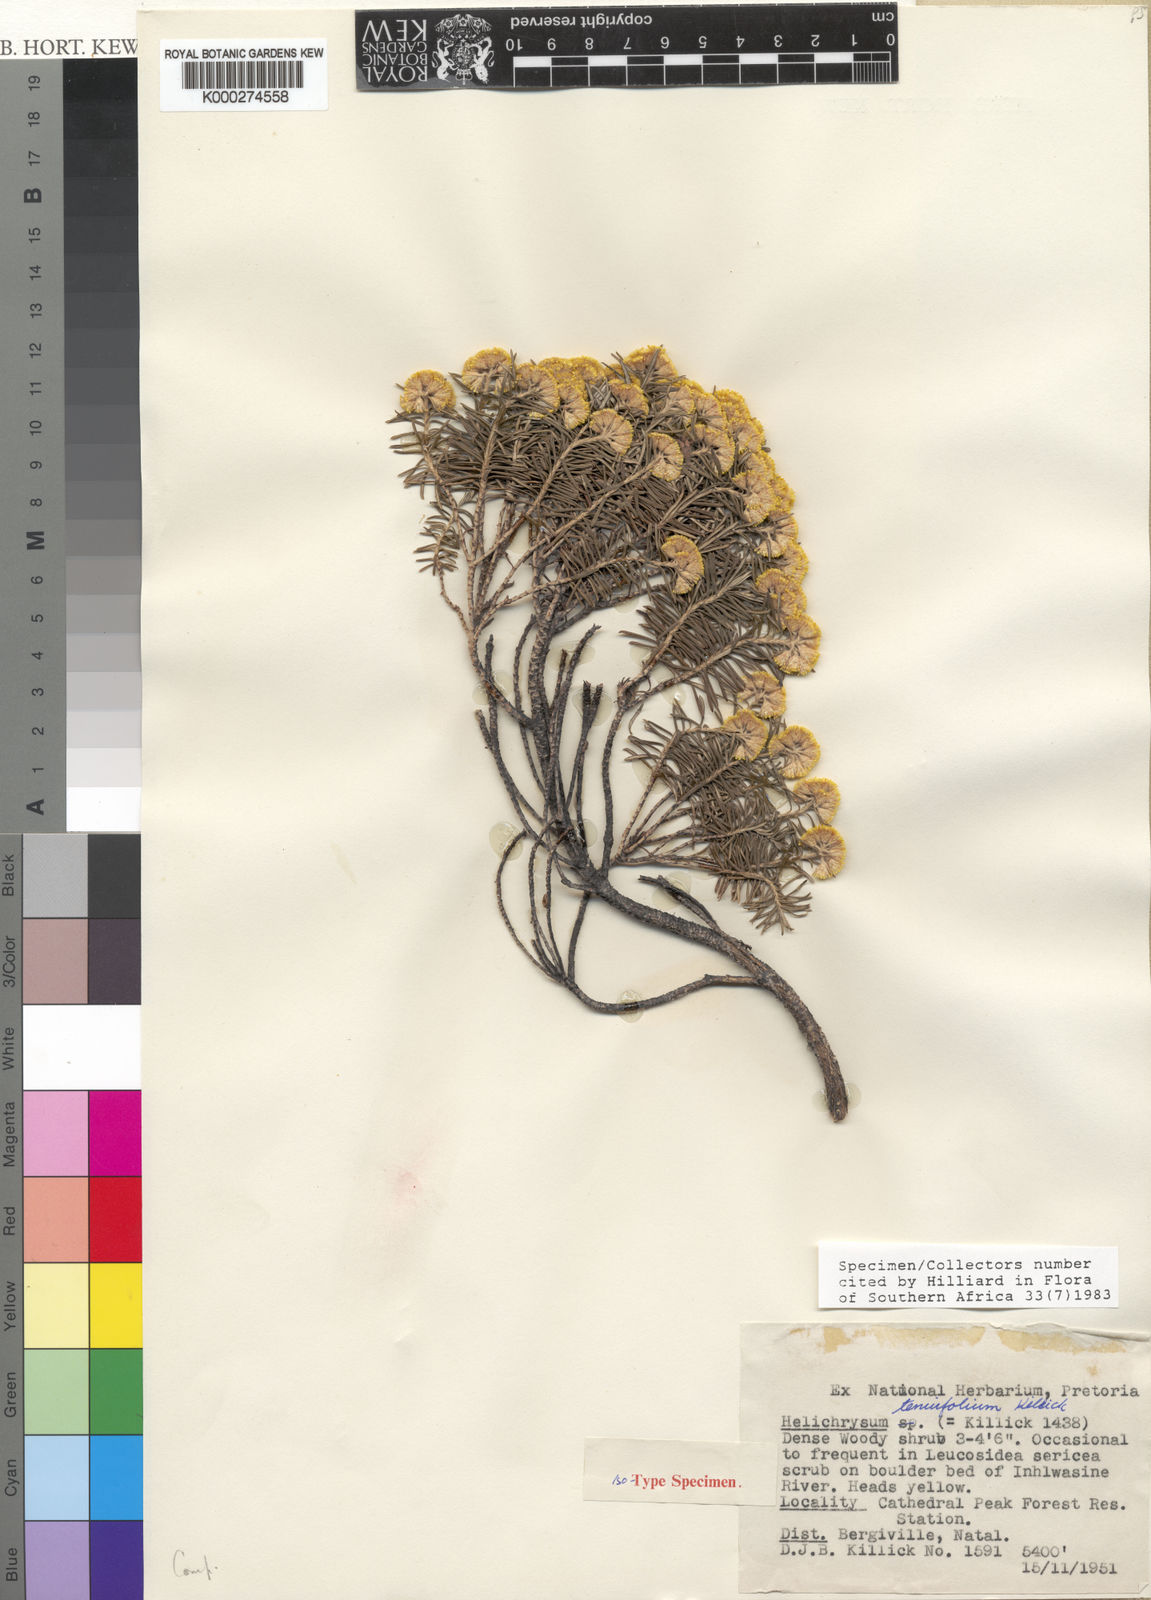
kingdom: Plantae
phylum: Tracheophyta
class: Magnoliopsida
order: Asterales
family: Asteraceae
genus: Helichrysum
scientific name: Helichrysum tenuifolium
